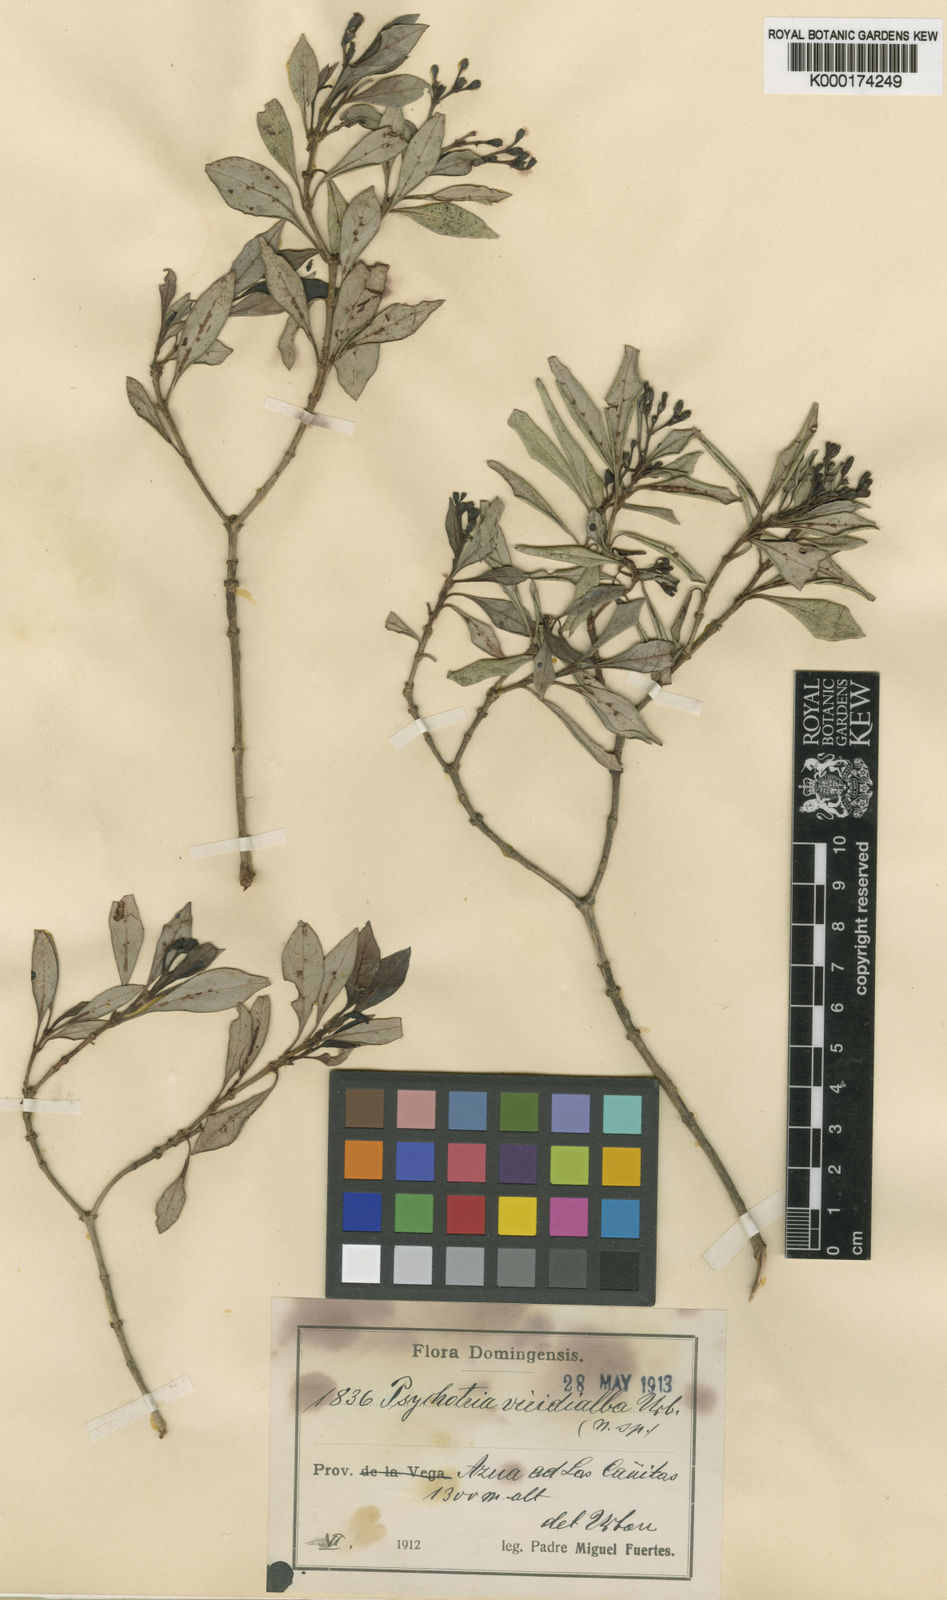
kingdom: Plantae
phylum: Tracheophyta
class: Magnoliopsida
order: Gentianales
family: Rubiaceae
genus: Psychotria
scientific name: Psychotria viridialba
